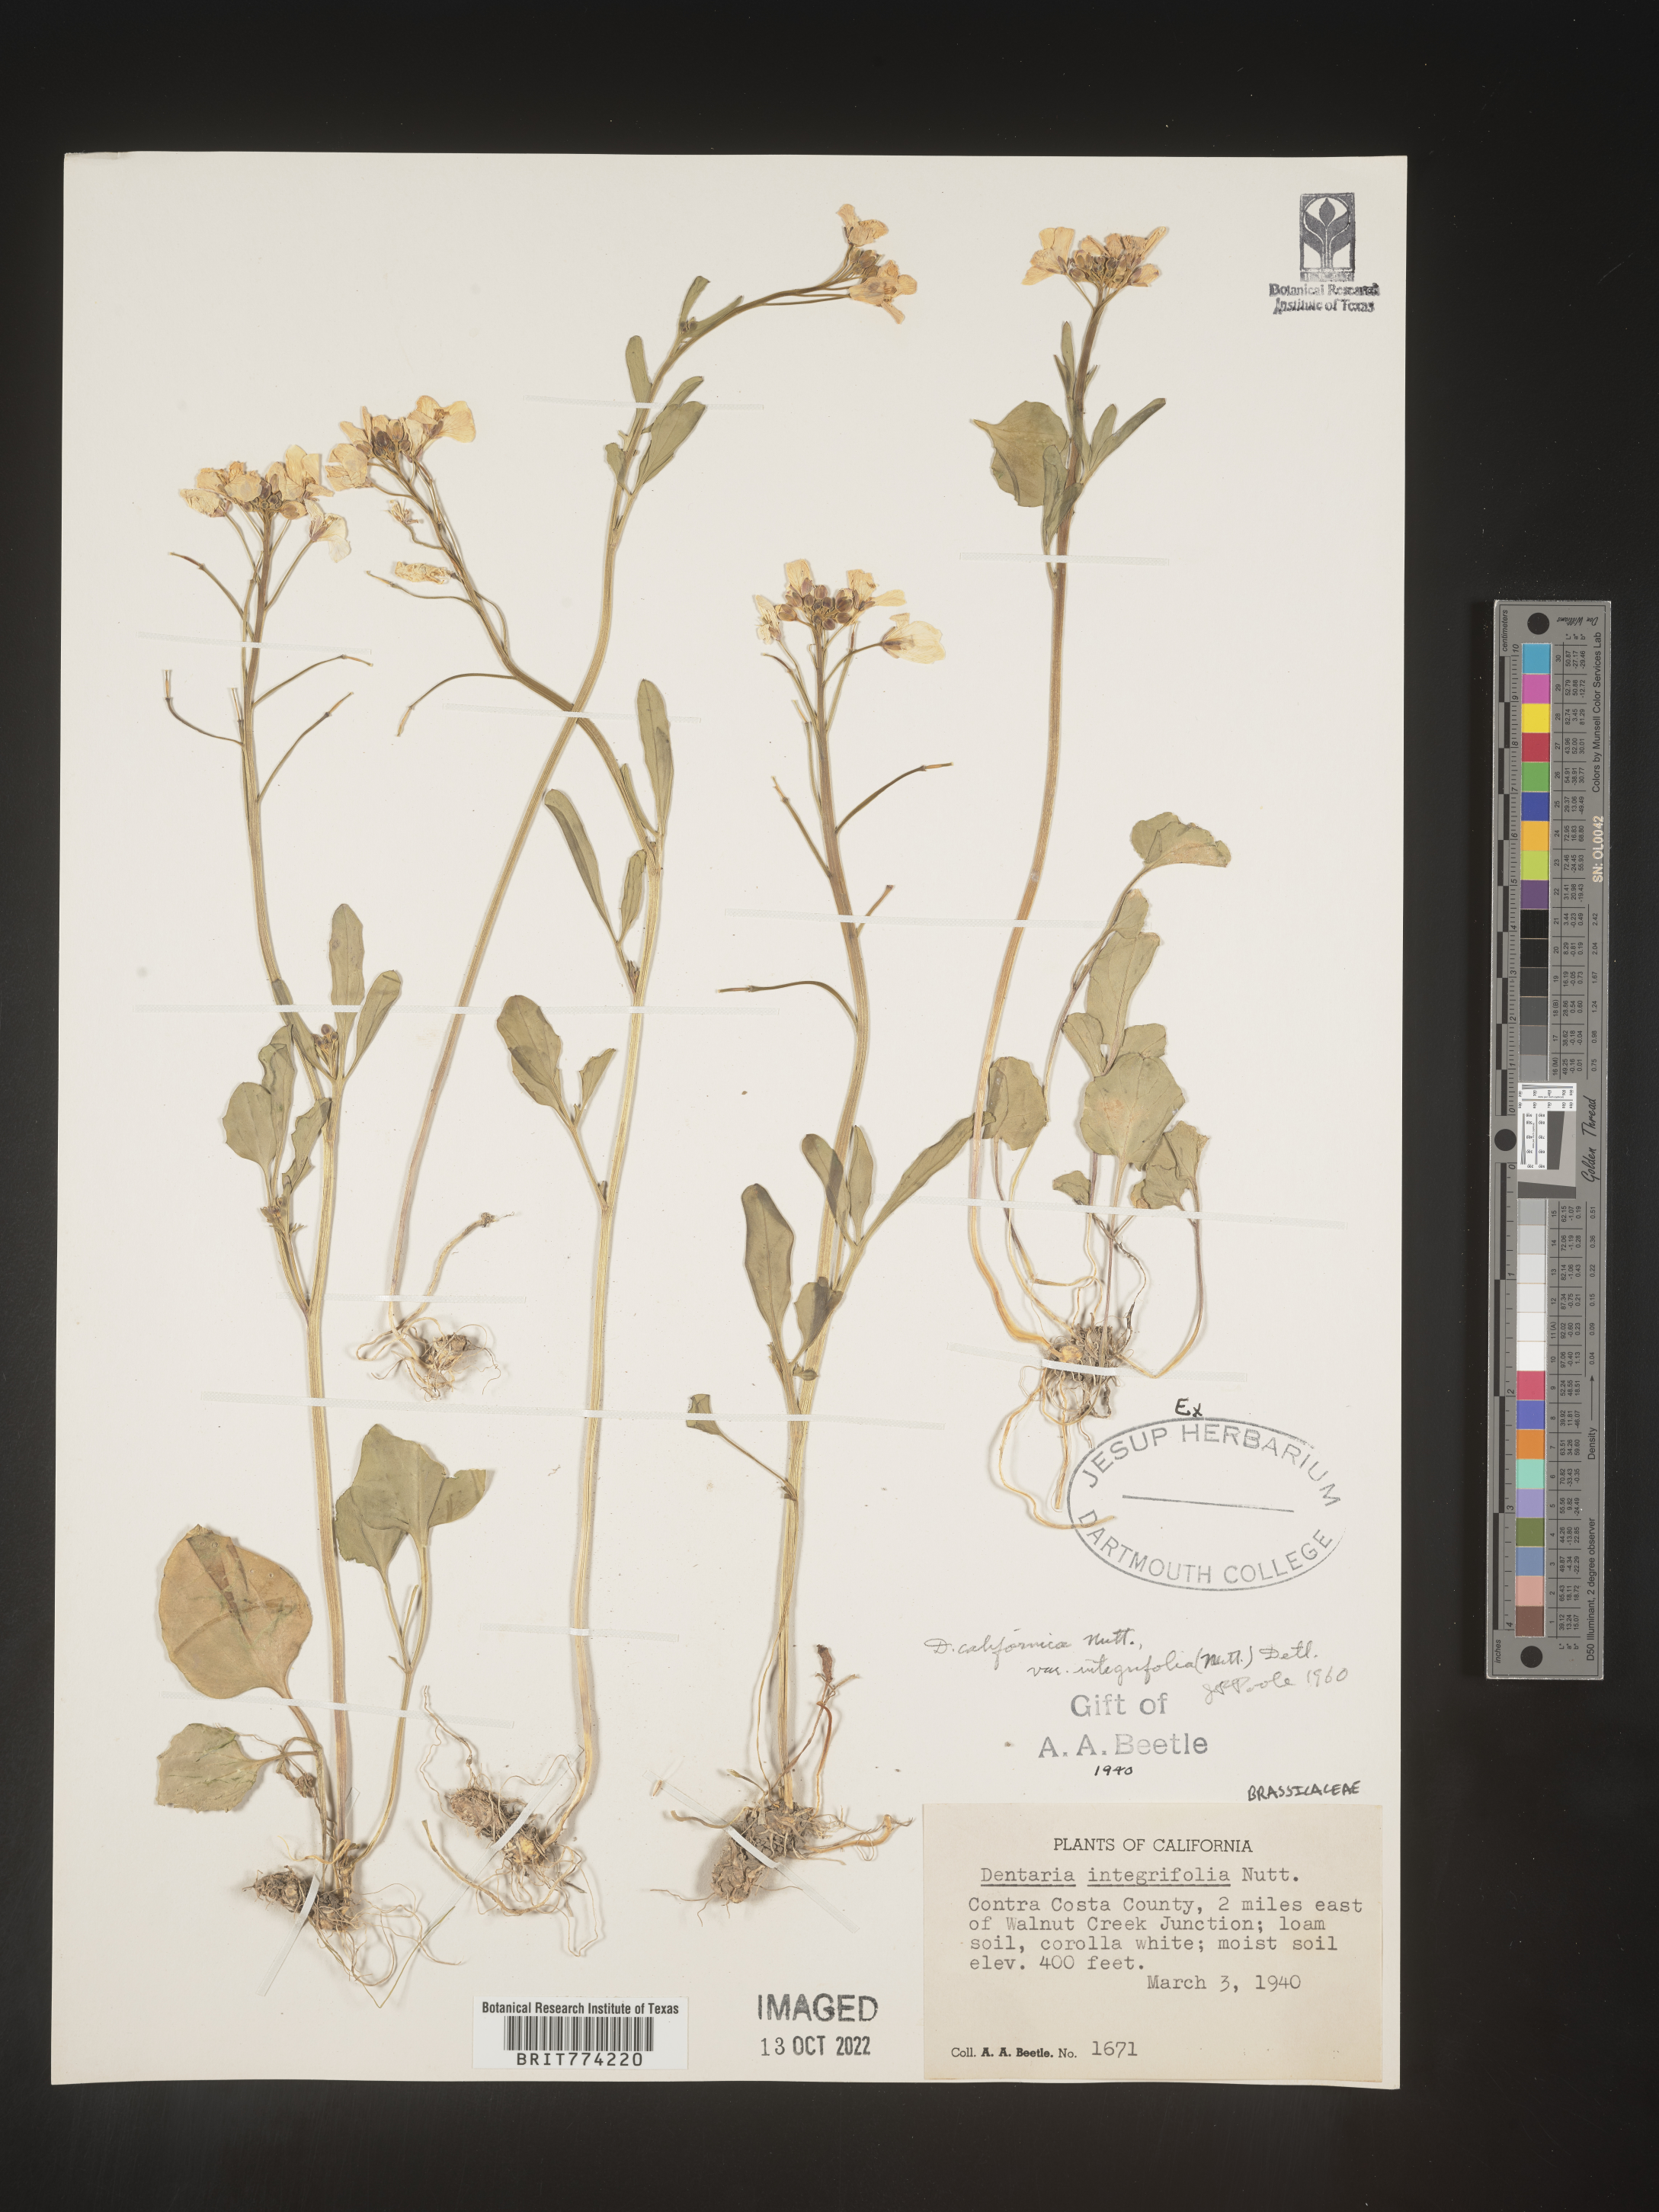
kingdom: Animalia
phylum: Mollusca
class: Bivalvia
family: Protocuspidariidae
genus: Dentaria
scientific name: Dentaria
